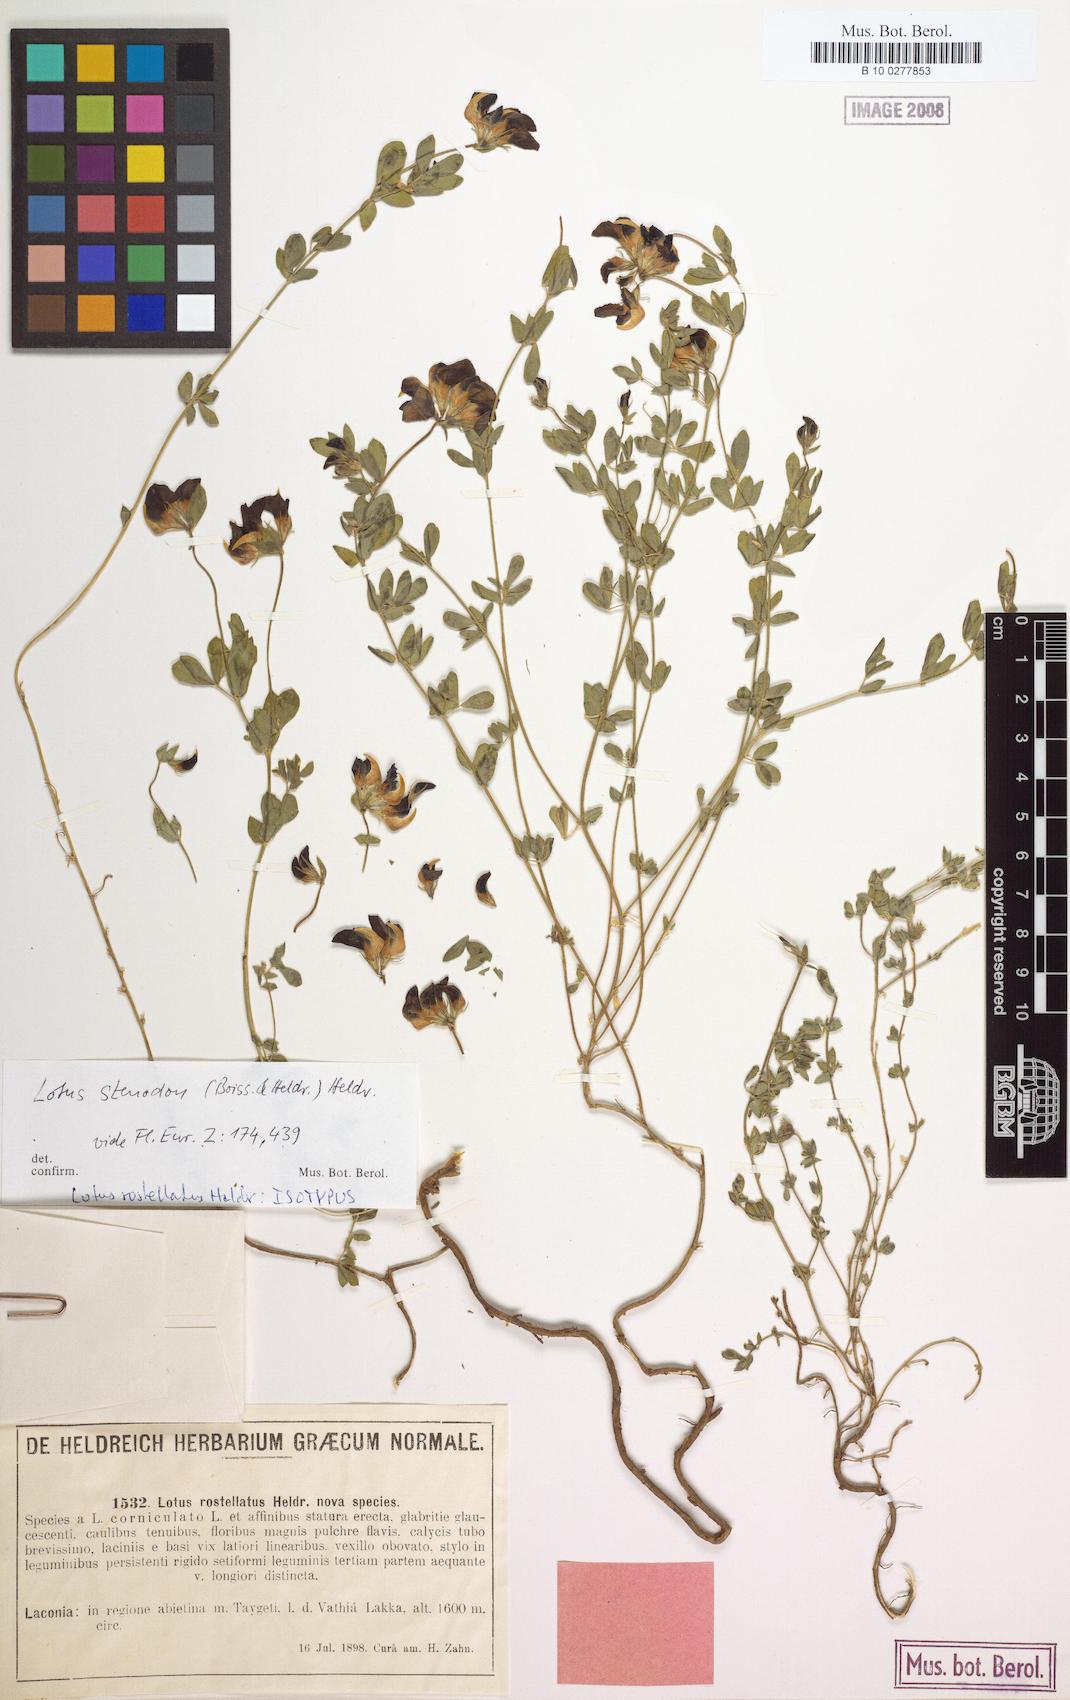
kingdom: Plantae
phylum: Tracheophyta
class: Magnoliopsida
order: Fabales
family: Fabaceae
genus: Lotus
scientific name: Lotus stenodon
